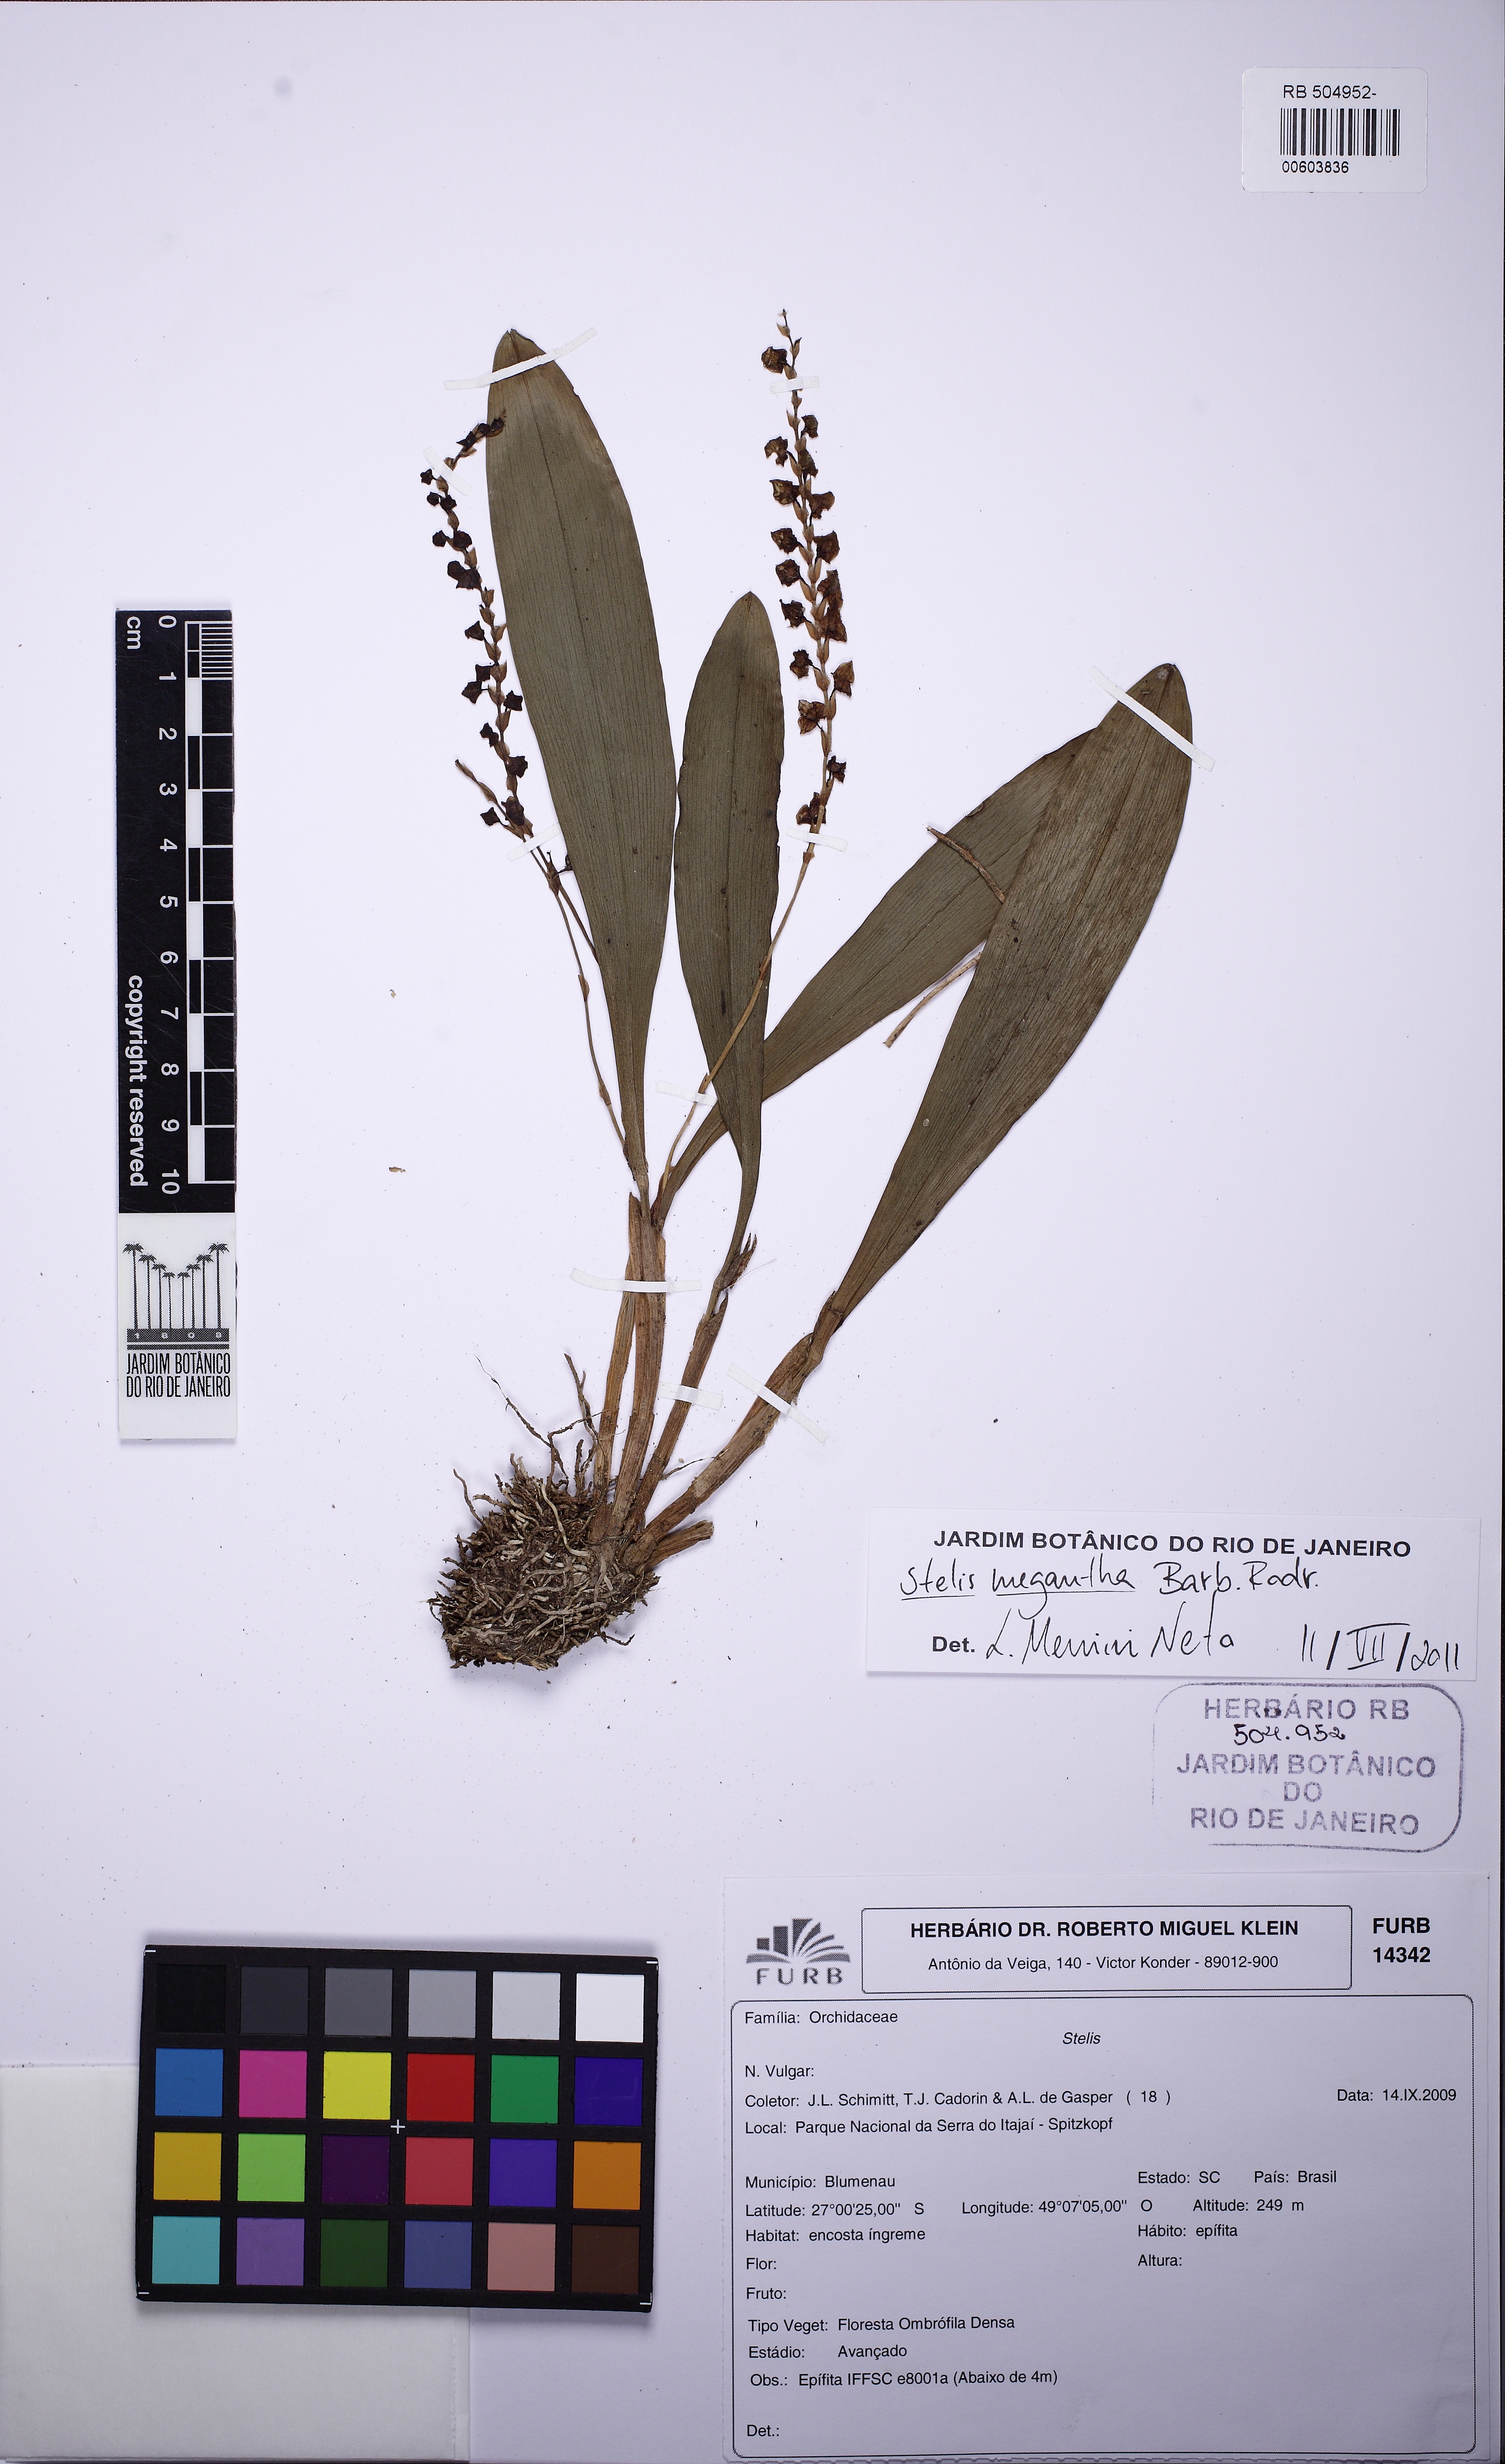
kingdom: Plantae
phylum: Tracheophyta
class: Liliopsida
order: Asparagales
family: Orchidaceae
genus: Stelis
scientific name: Stelis grandiflora
